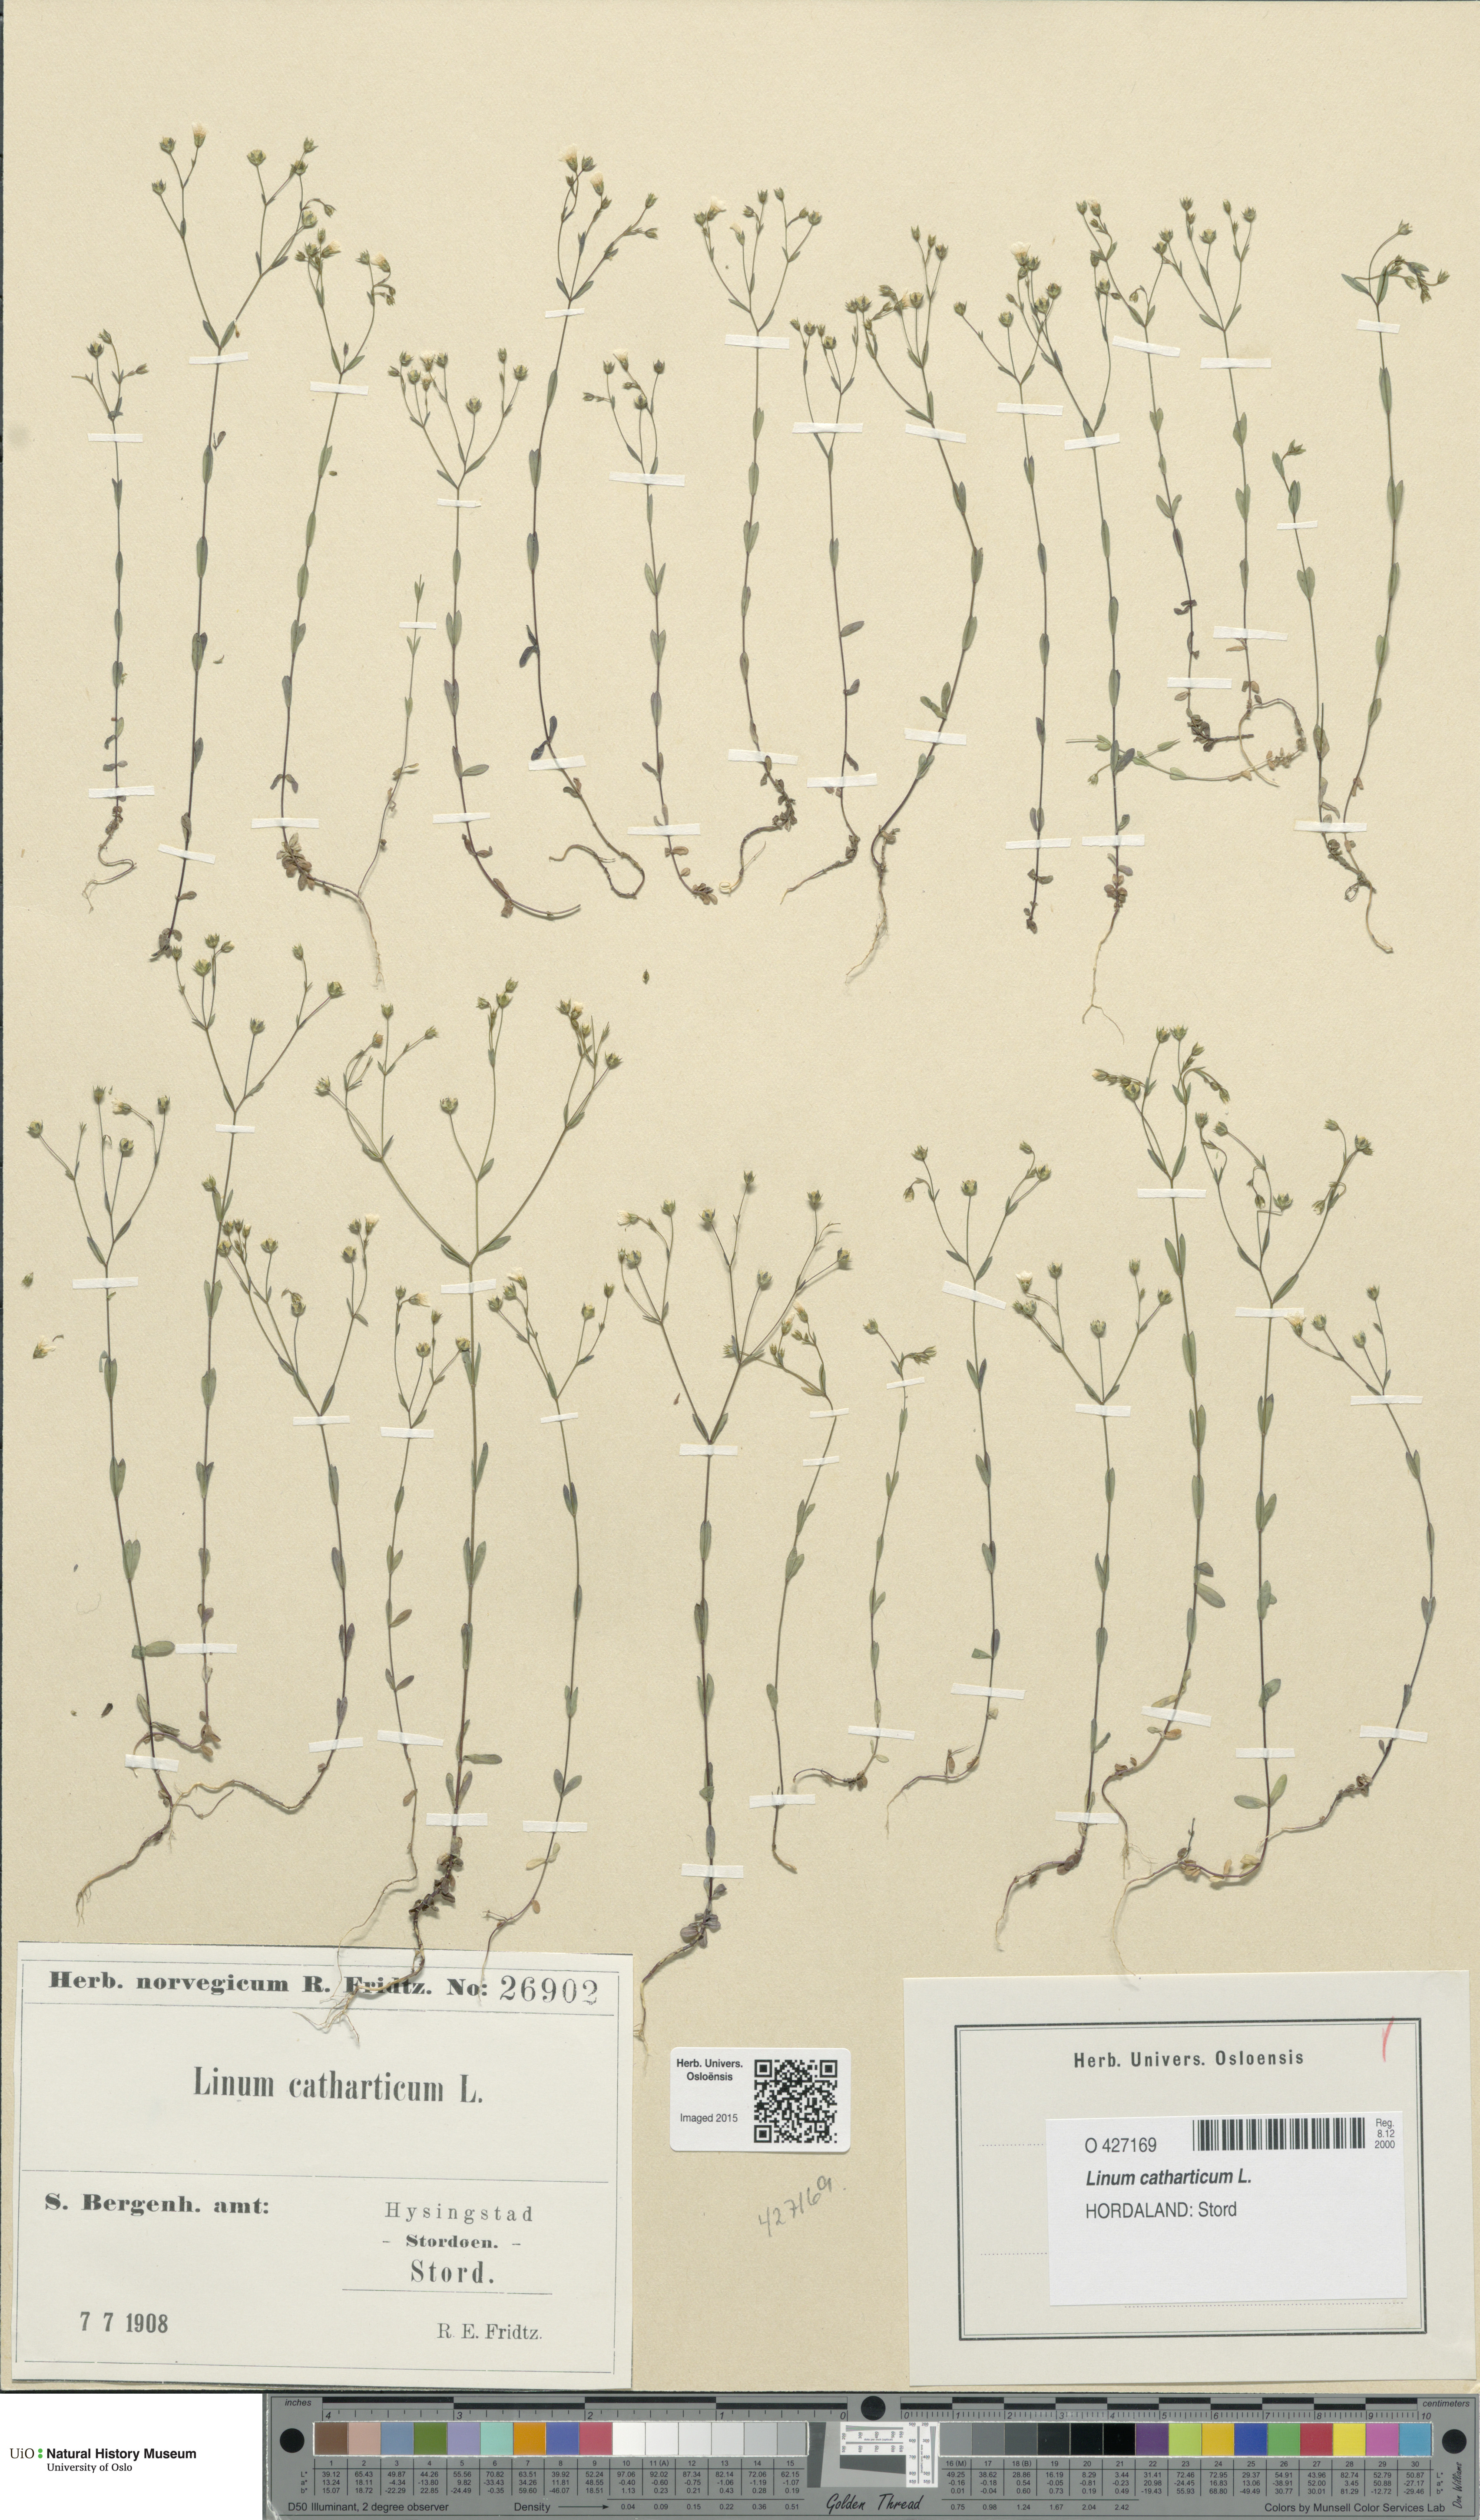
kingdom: Plantae
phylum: Tracheophyta
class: Magnoliopsida
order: Malpighiales
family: Linaceae
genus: Linum
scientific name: Linum catharticum
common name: Fairy flax
